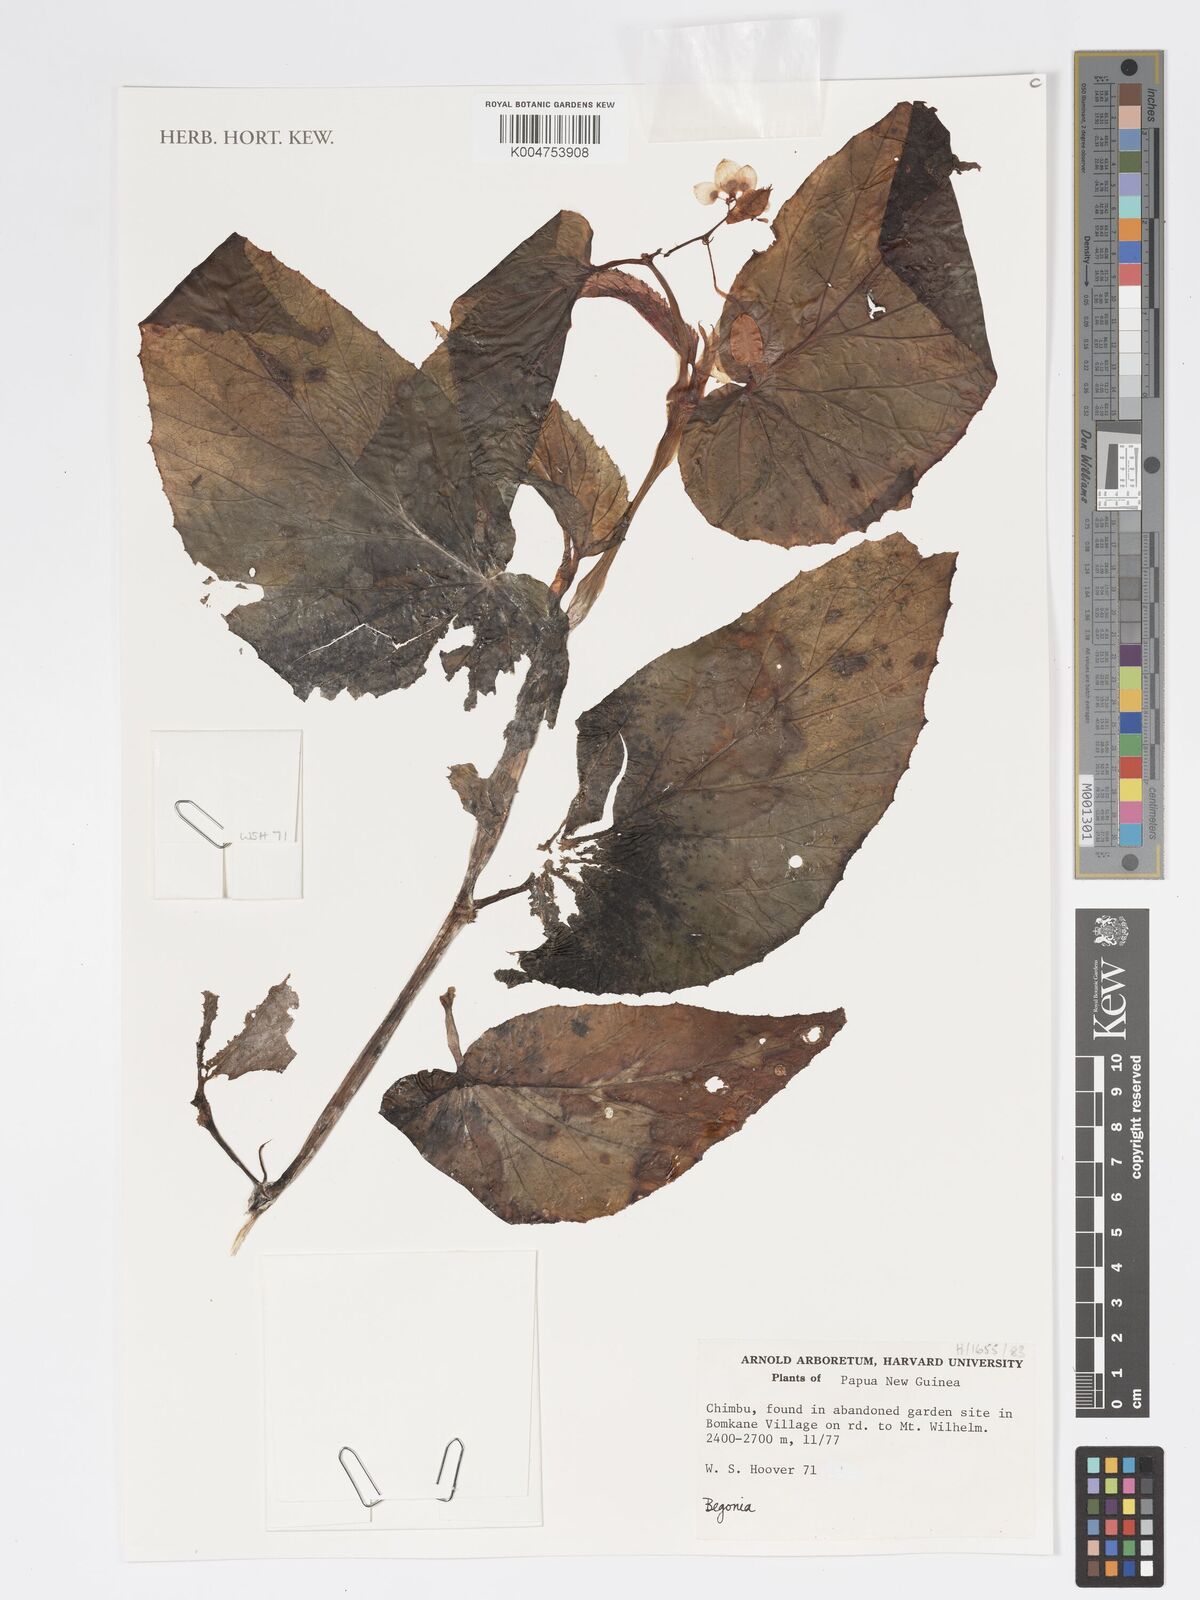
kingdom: Plantae
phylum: Tracheophyta
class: Magnoliopsida
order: Cucurbitales
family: Begoniaceae
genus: Begonia
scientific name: Begonia
